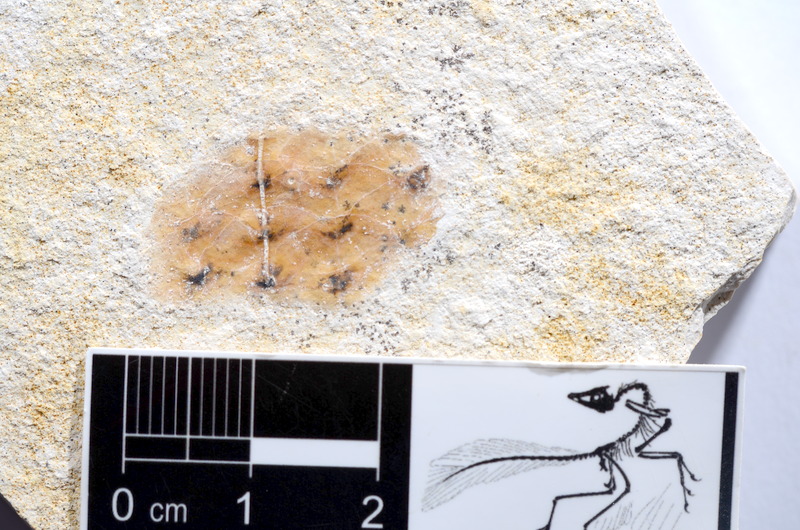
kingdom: Animalia
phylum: Chordata
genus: Thrissops
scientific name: Thrissops formosus
